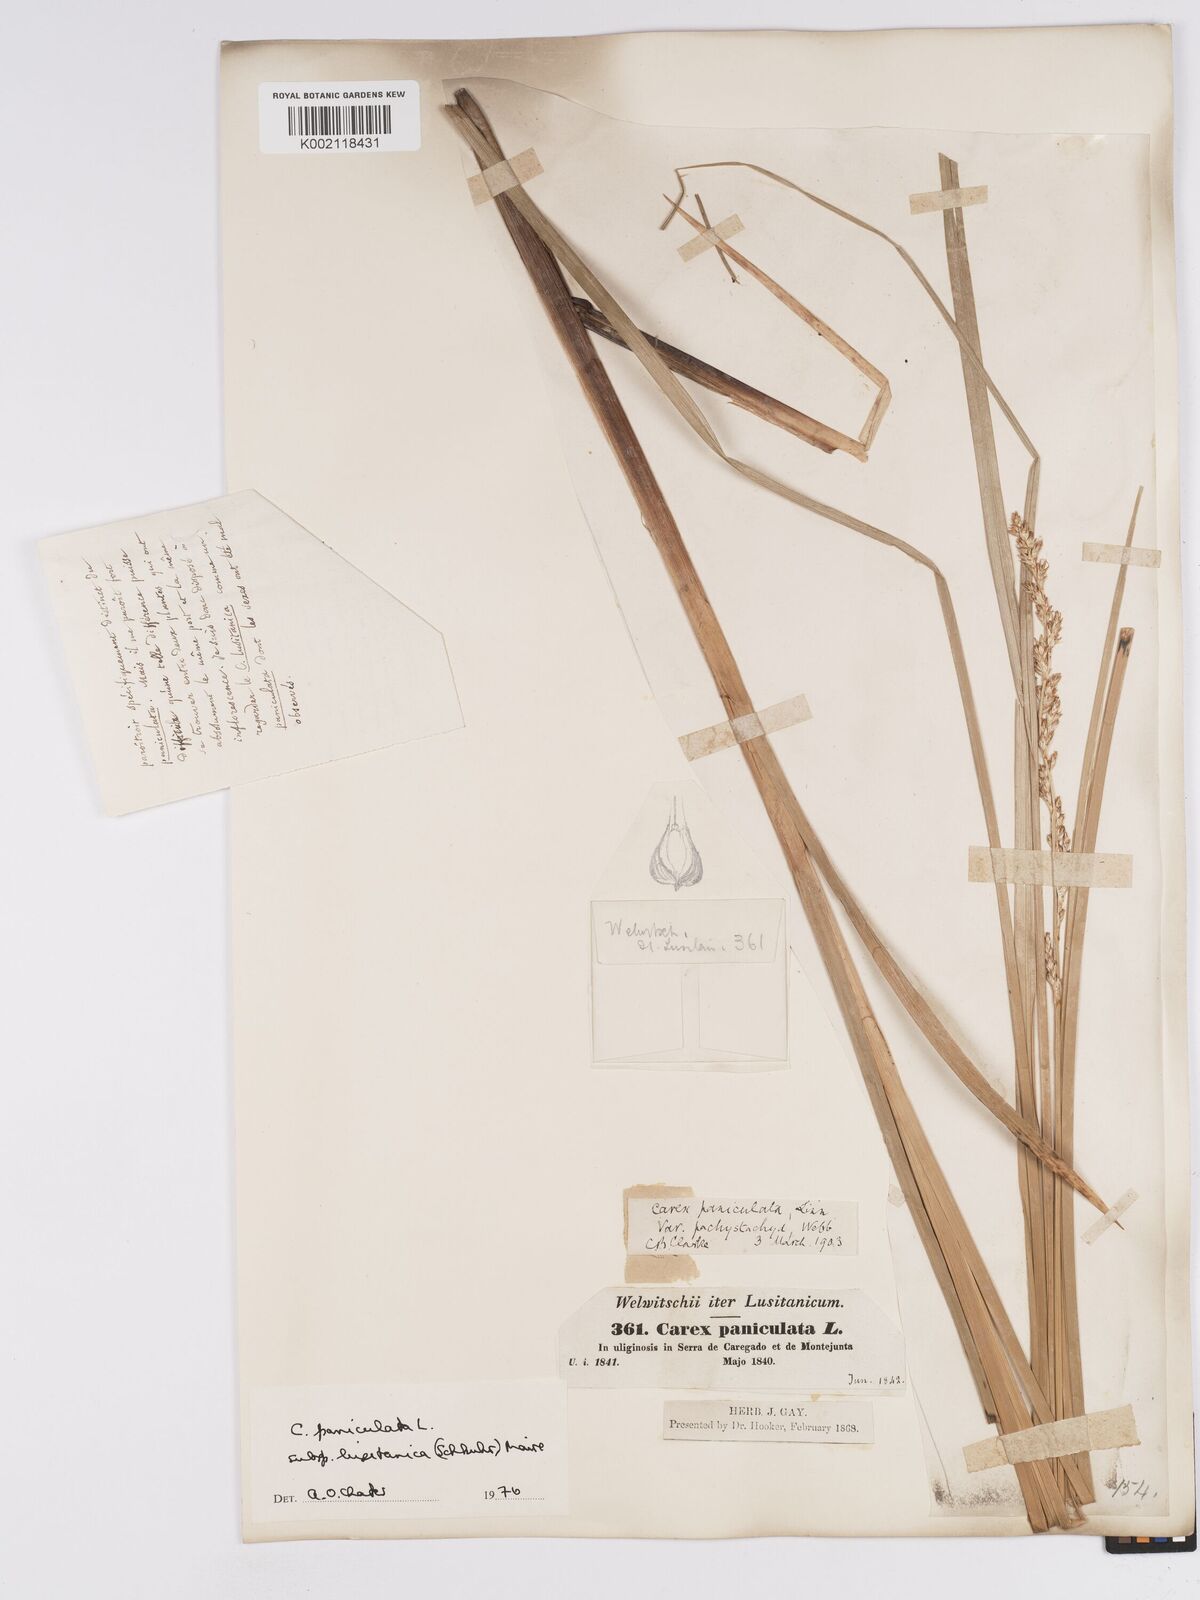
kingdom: Plantae
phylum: Tracheophyta
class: Liliopsida
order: Poales
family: Cyperaceae
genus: Carex
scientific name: Carex paniculata
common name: Greater tussock-sedge
